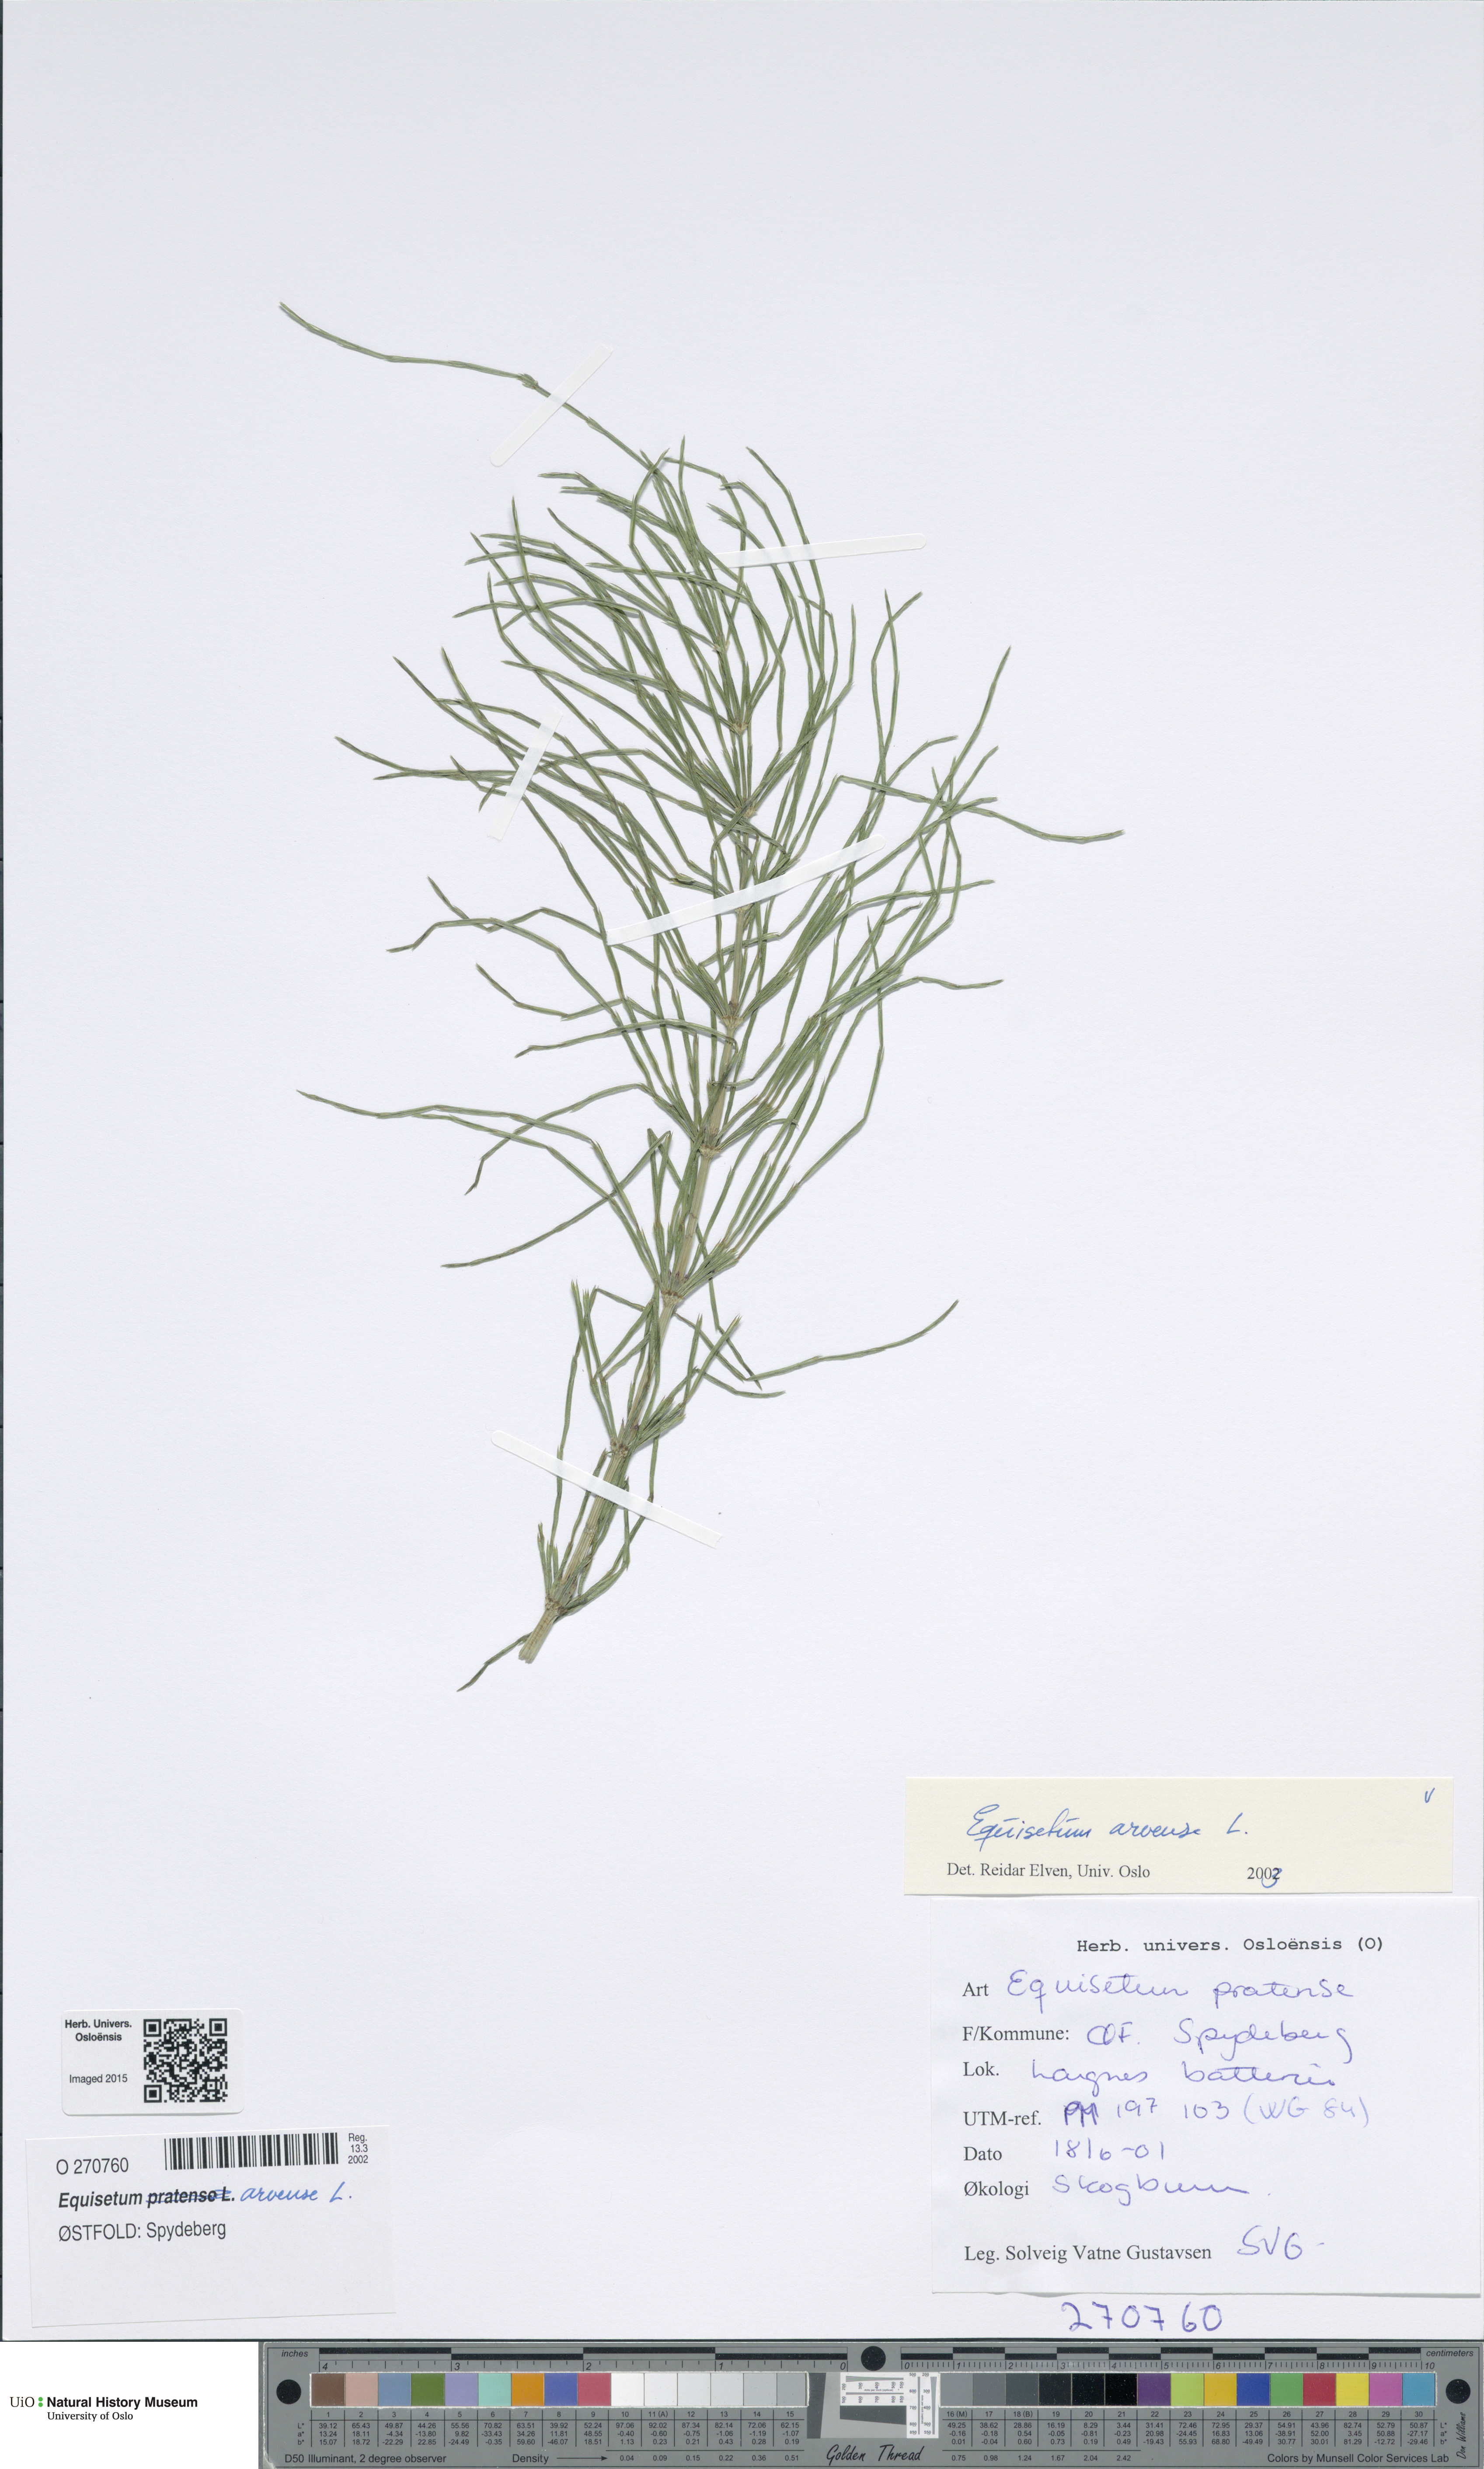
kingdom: Plantae
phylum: Tracheophyta
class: Polypodiopsida
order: Equisetales
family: Equisetaceae
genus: Equisetum
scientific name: Equisetum arvense
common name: Field horsetail
